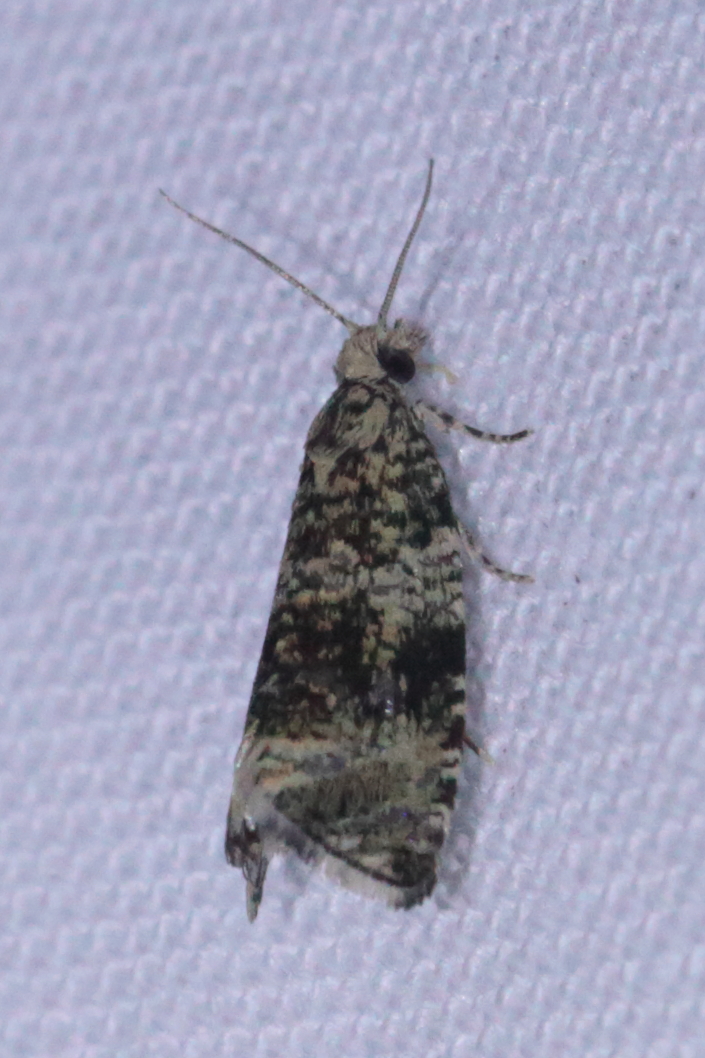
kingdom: Animalia
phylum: Arthropoda
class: Insecta
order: Lepidoptera
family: Tortricidae
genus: Syricoris
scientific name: Syricoris lacunana
